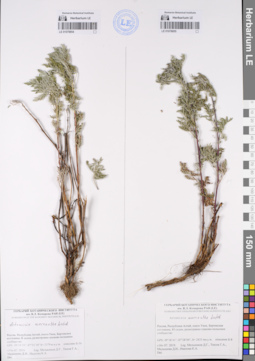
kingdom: Plantae
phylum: Tracheophyta
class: Magnoliopsida
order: Asterales
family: Asteraceae
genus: Artemisia
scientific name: Artemisia macrantha
